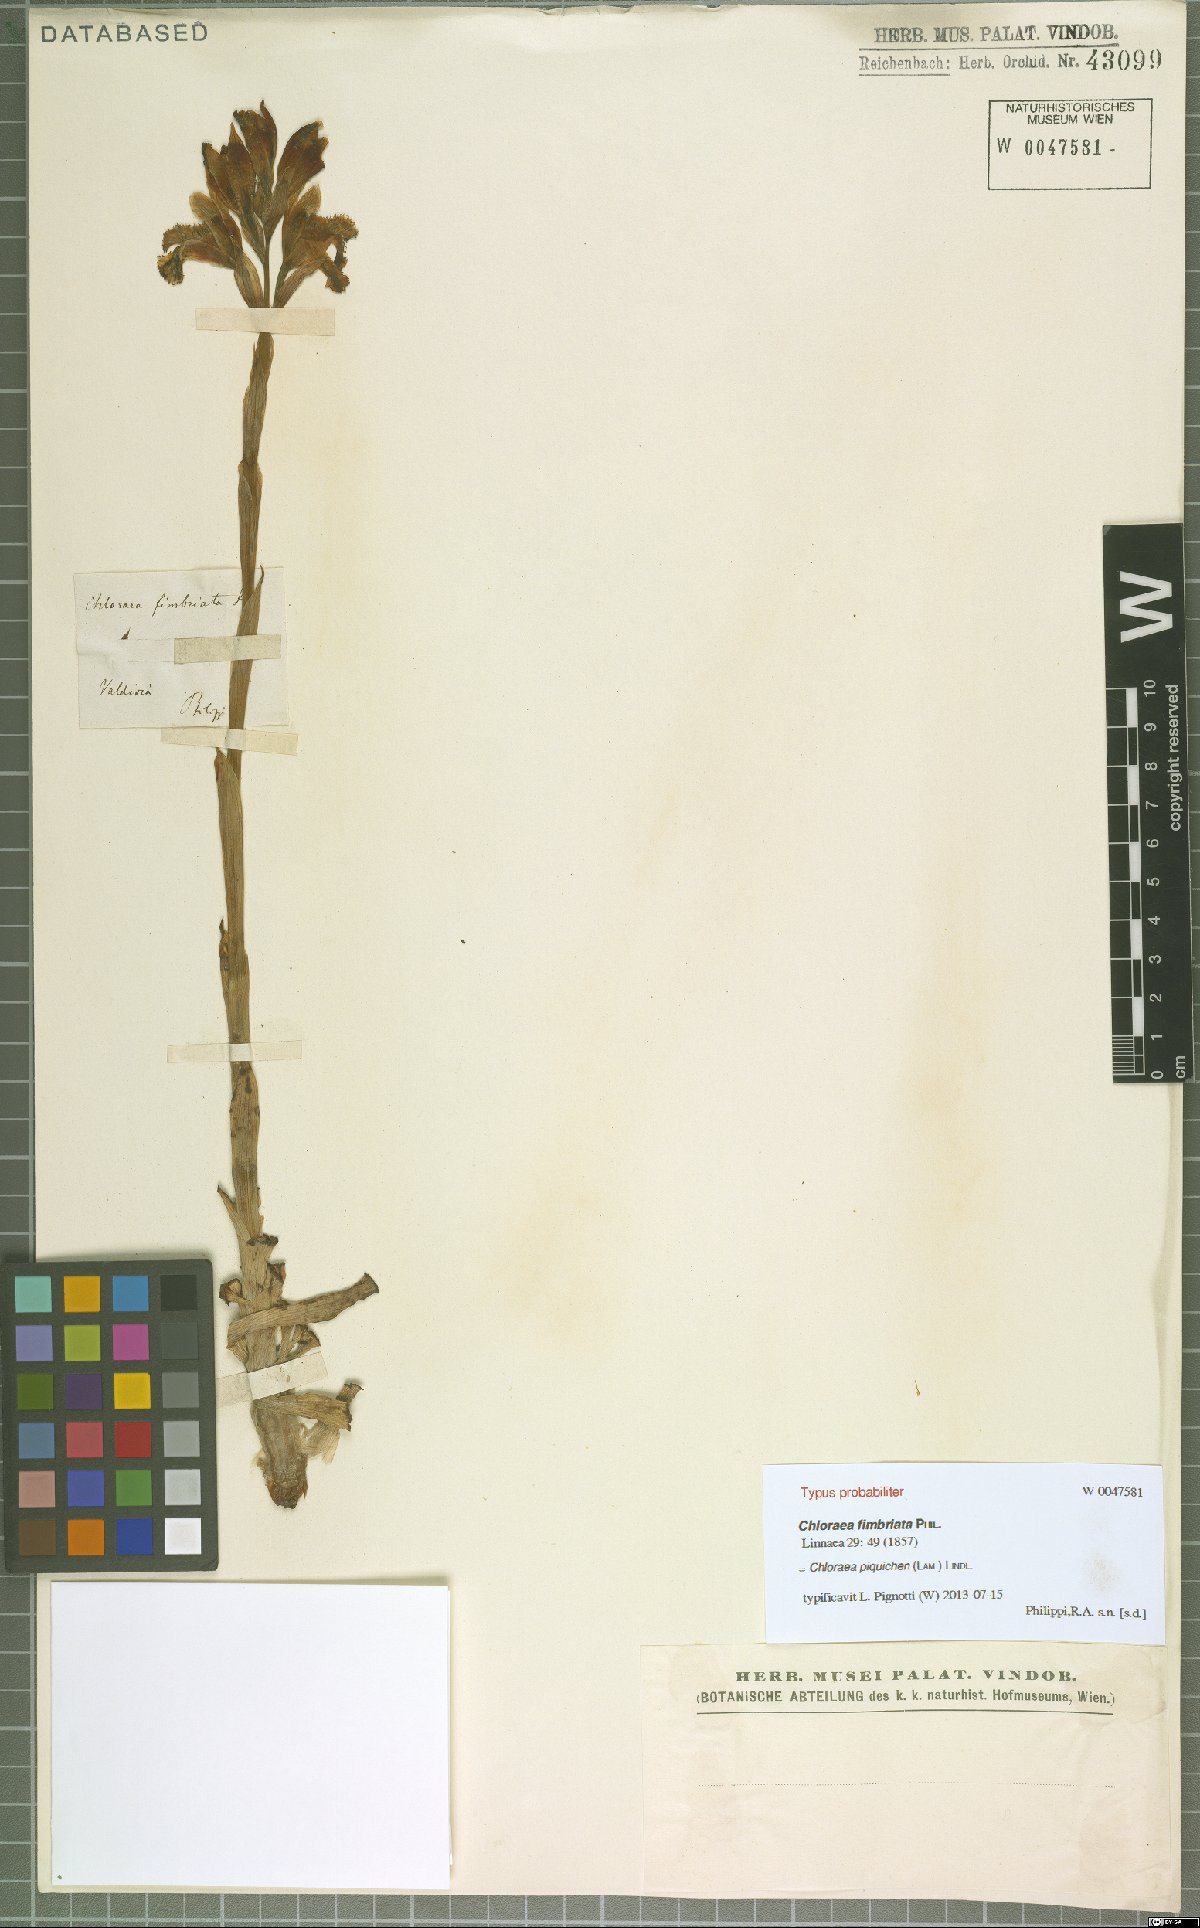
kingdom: Plantae
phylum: Tracheophyta
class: Liliopsida
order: Asparagales
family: Orchidaceae
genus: Chloraea
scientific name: Chloraea piquichen
